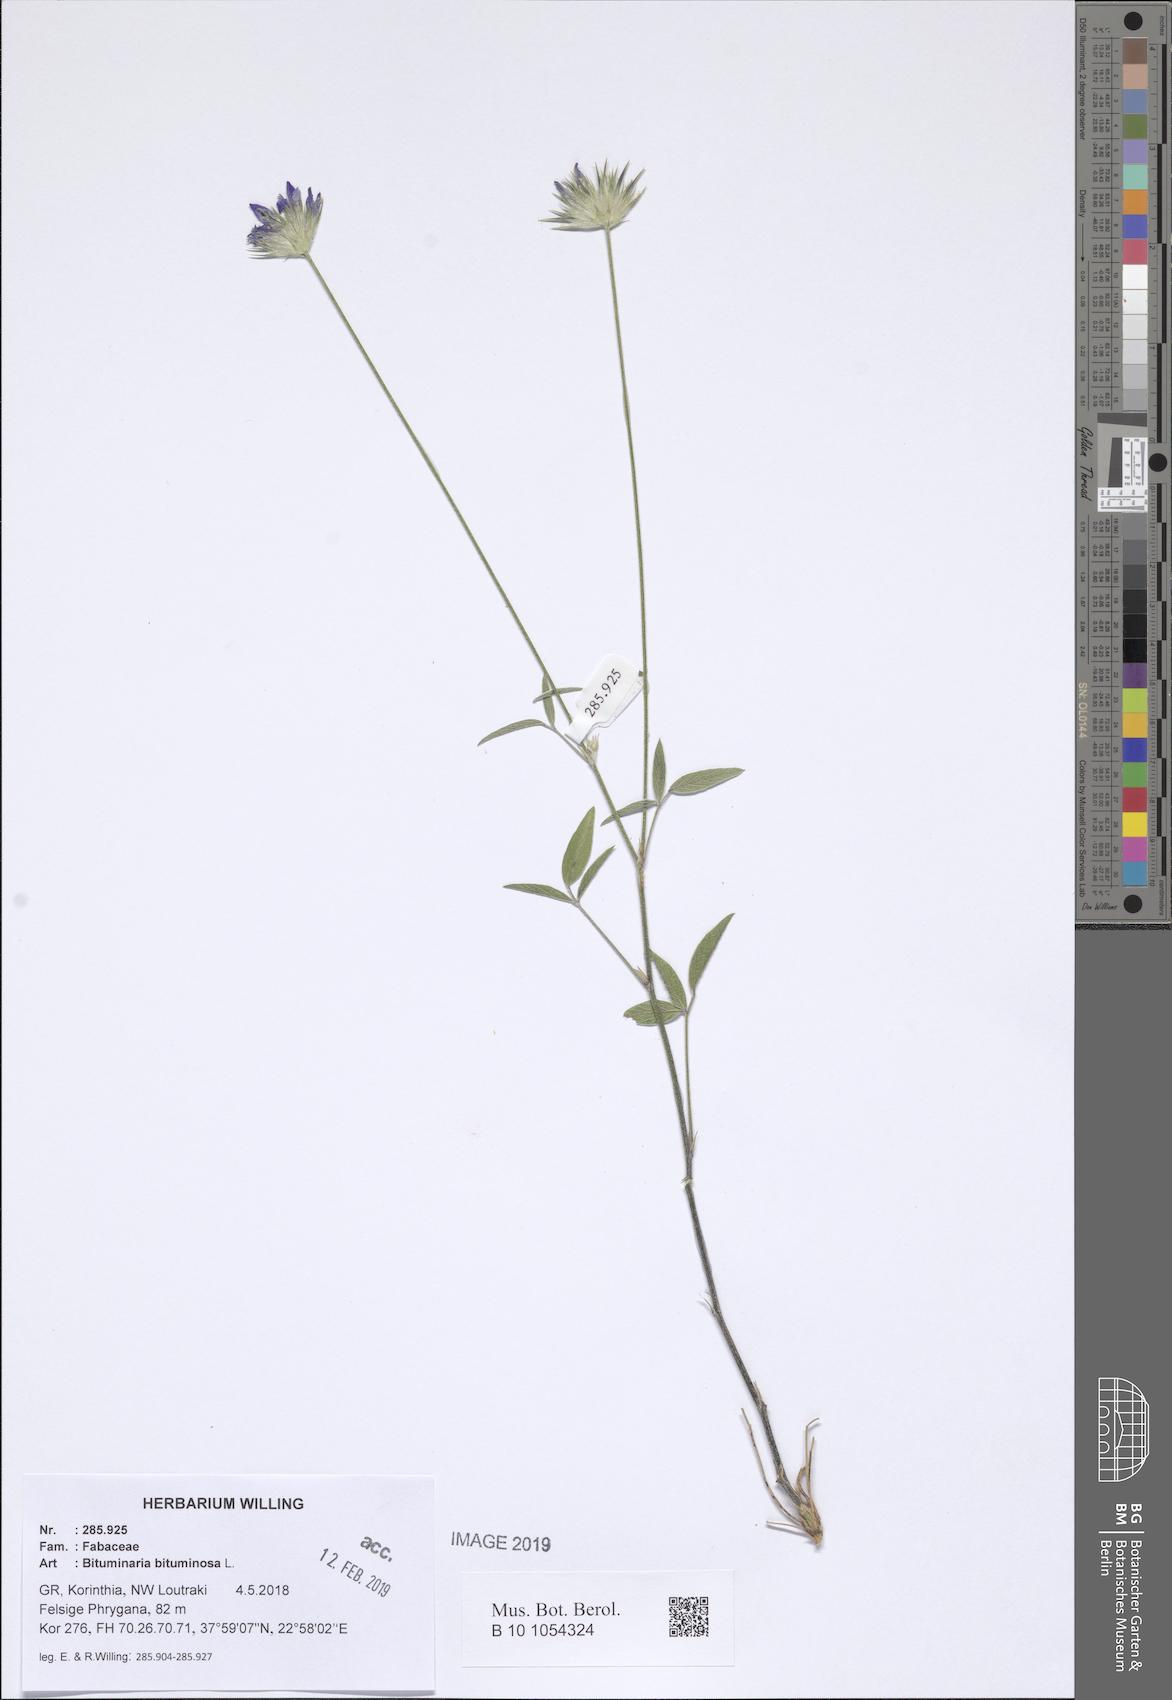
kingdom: Plantae
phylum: Tracheophyta
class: Magnoliopsida
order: Fabales
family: Fabaceae
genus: Bituminaria
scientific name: Bituminaria bituminosa
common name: Arabian pea
